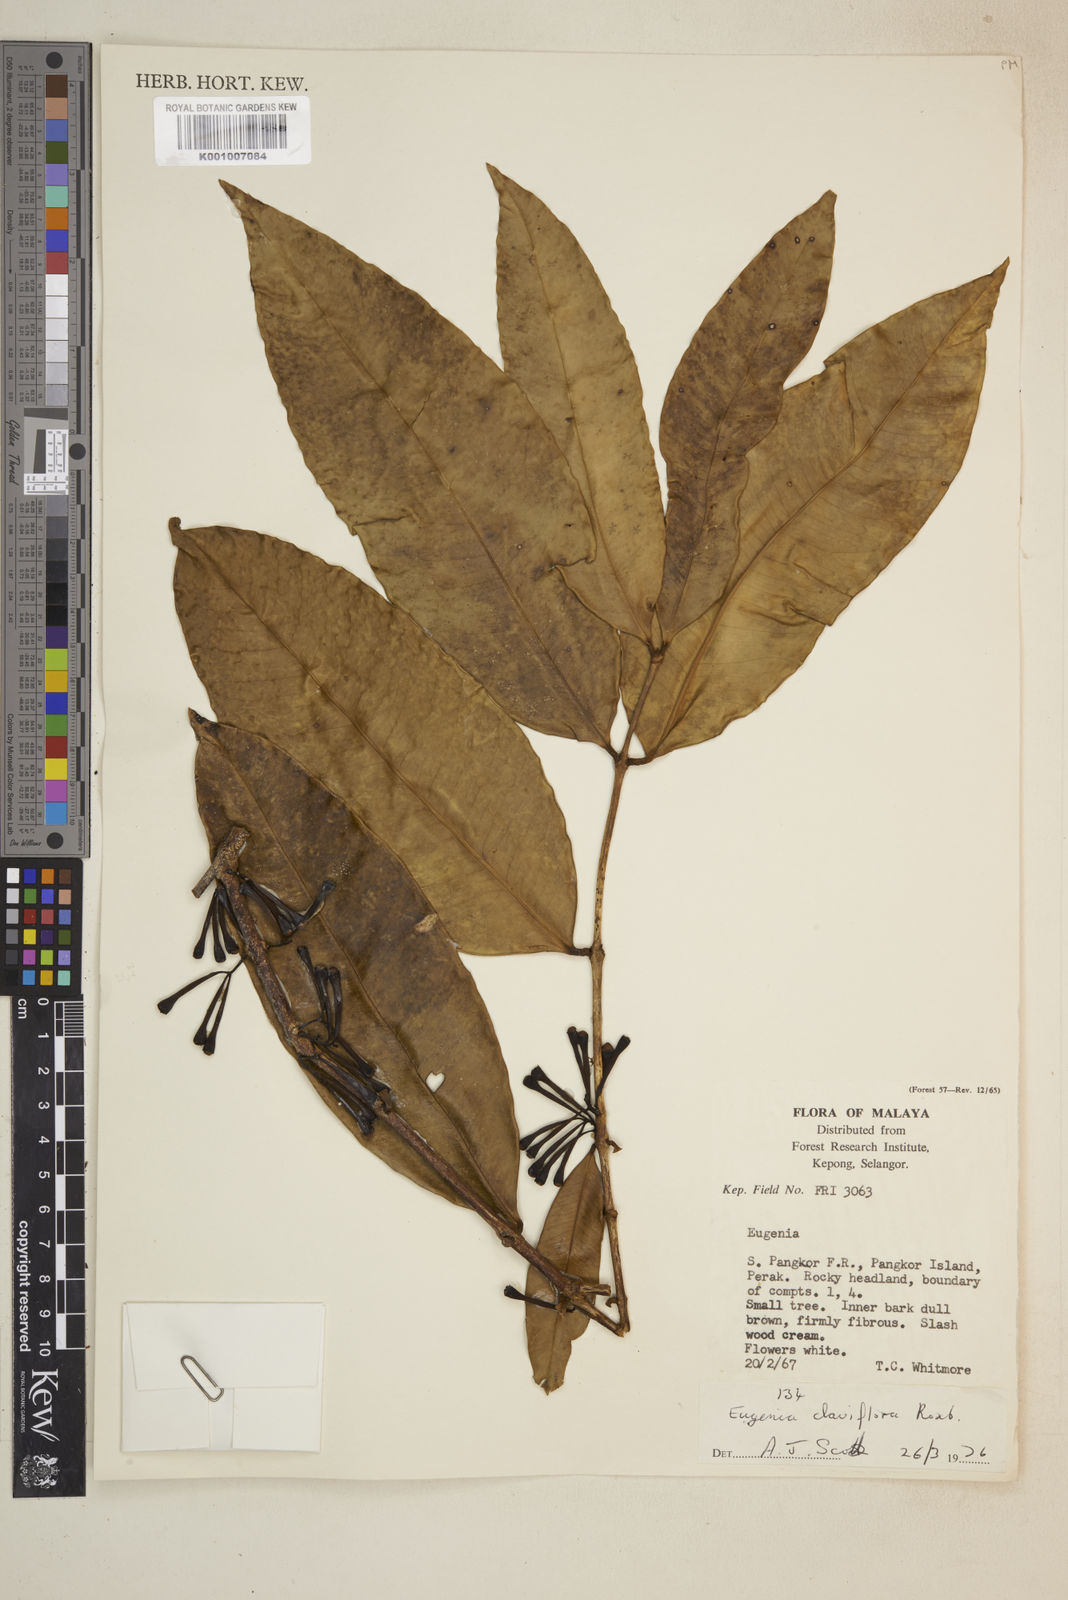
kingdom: Plantae
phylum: Tracheophyta
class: Magnoliopsida
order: Myrtales
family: Myrtaceae
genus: Syzygium
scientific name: Syzygium claviflorum
